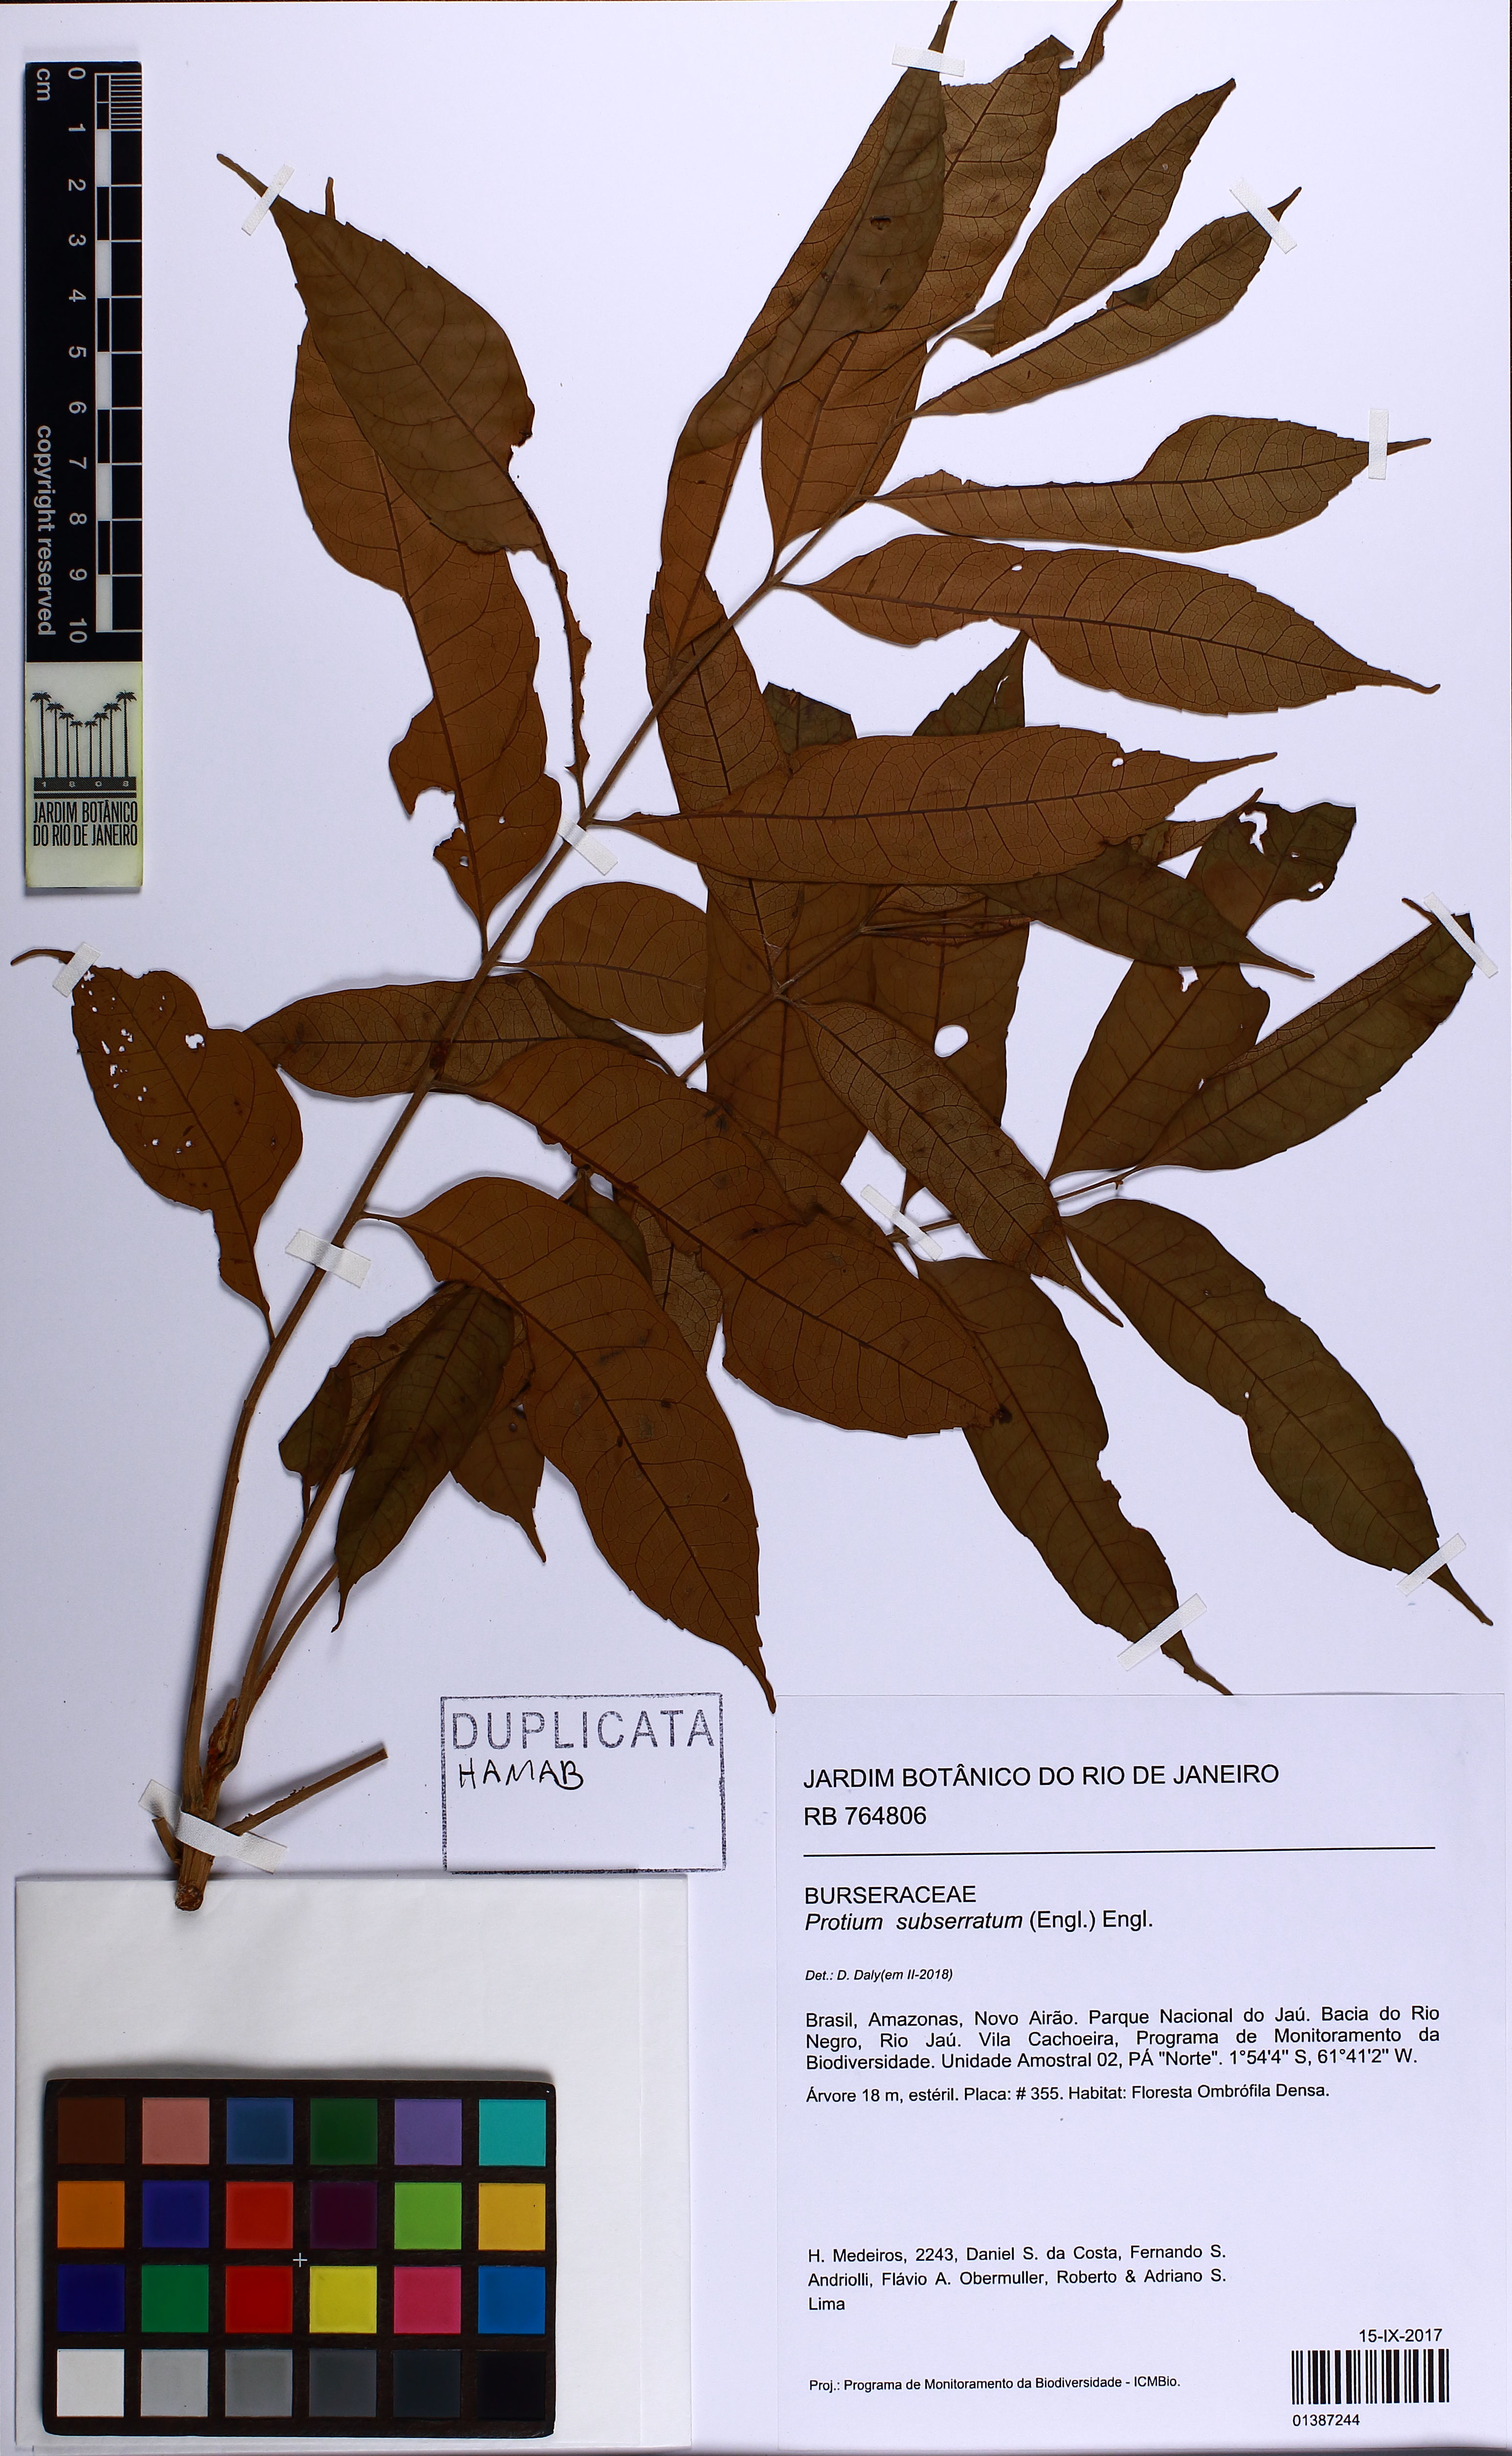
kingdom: Plantae
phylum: Tracheophyta
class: Magnoliopsida
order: Sapindales
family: Burseraceae
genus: Protium
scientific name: Protium subserratum
